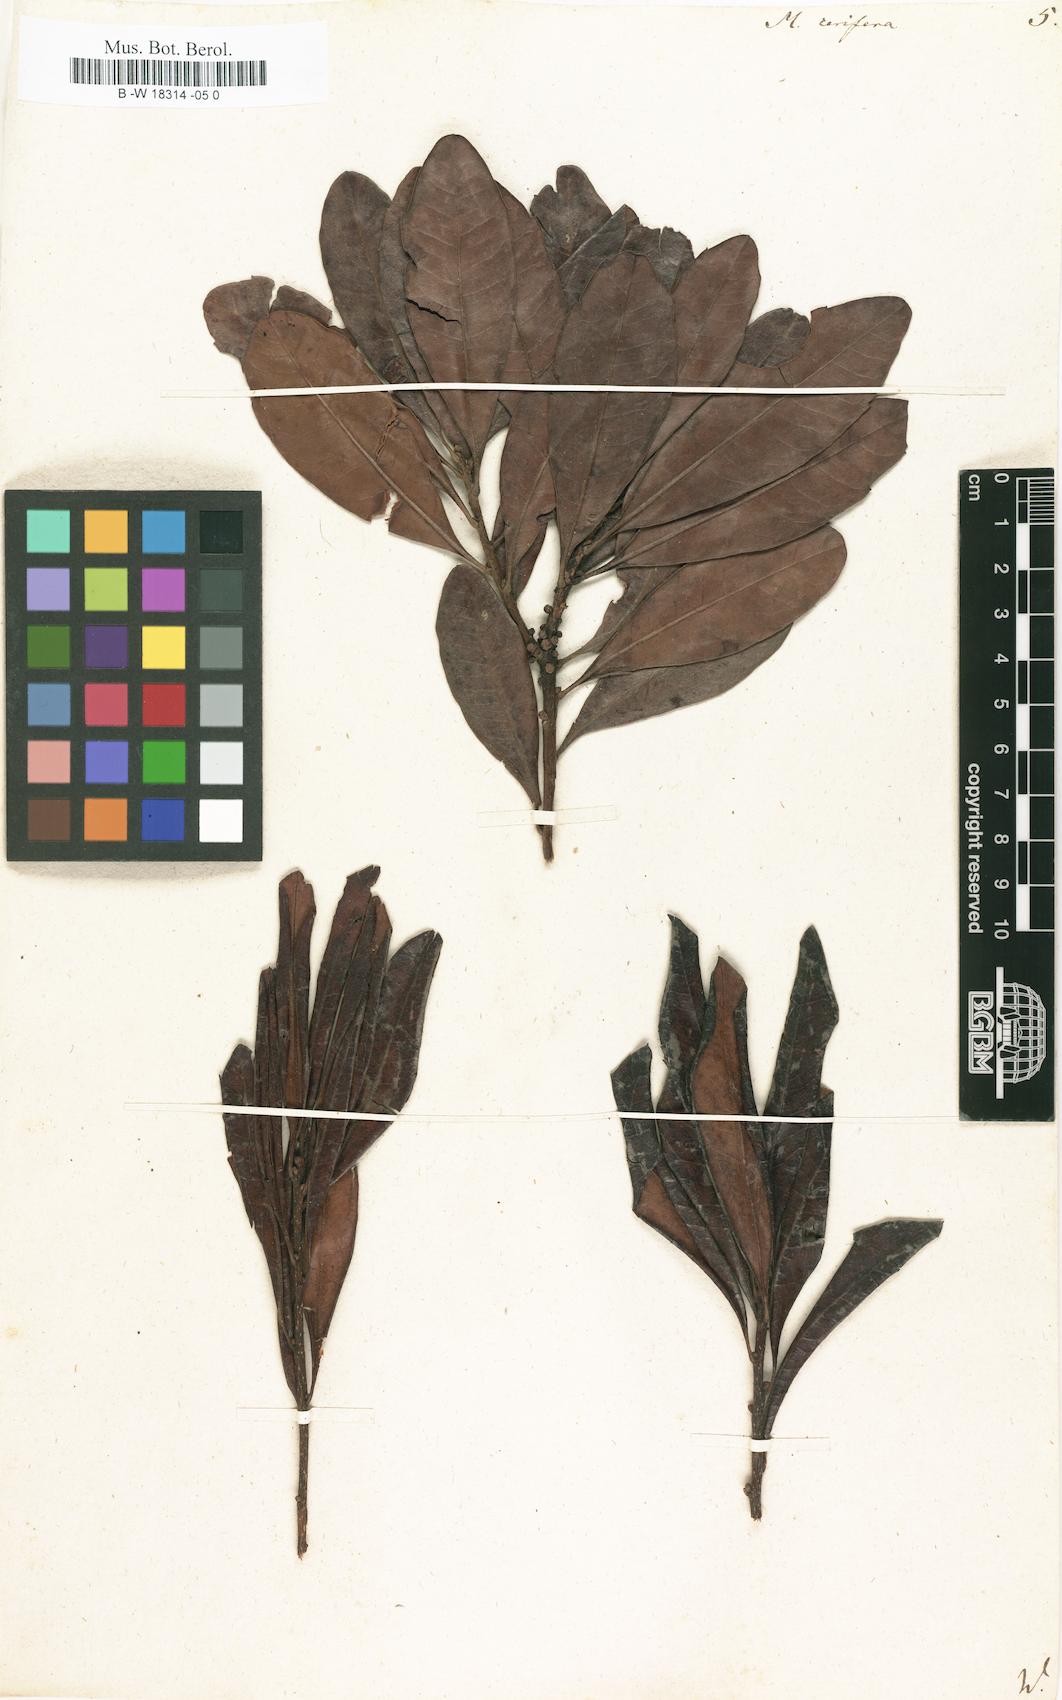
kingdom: Plantae
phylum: Tracheophyta
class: Magnoliopsida
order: Fagales
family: Myricaceae
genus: Morella
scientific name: Morella cerifera
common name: Wax myrtle
